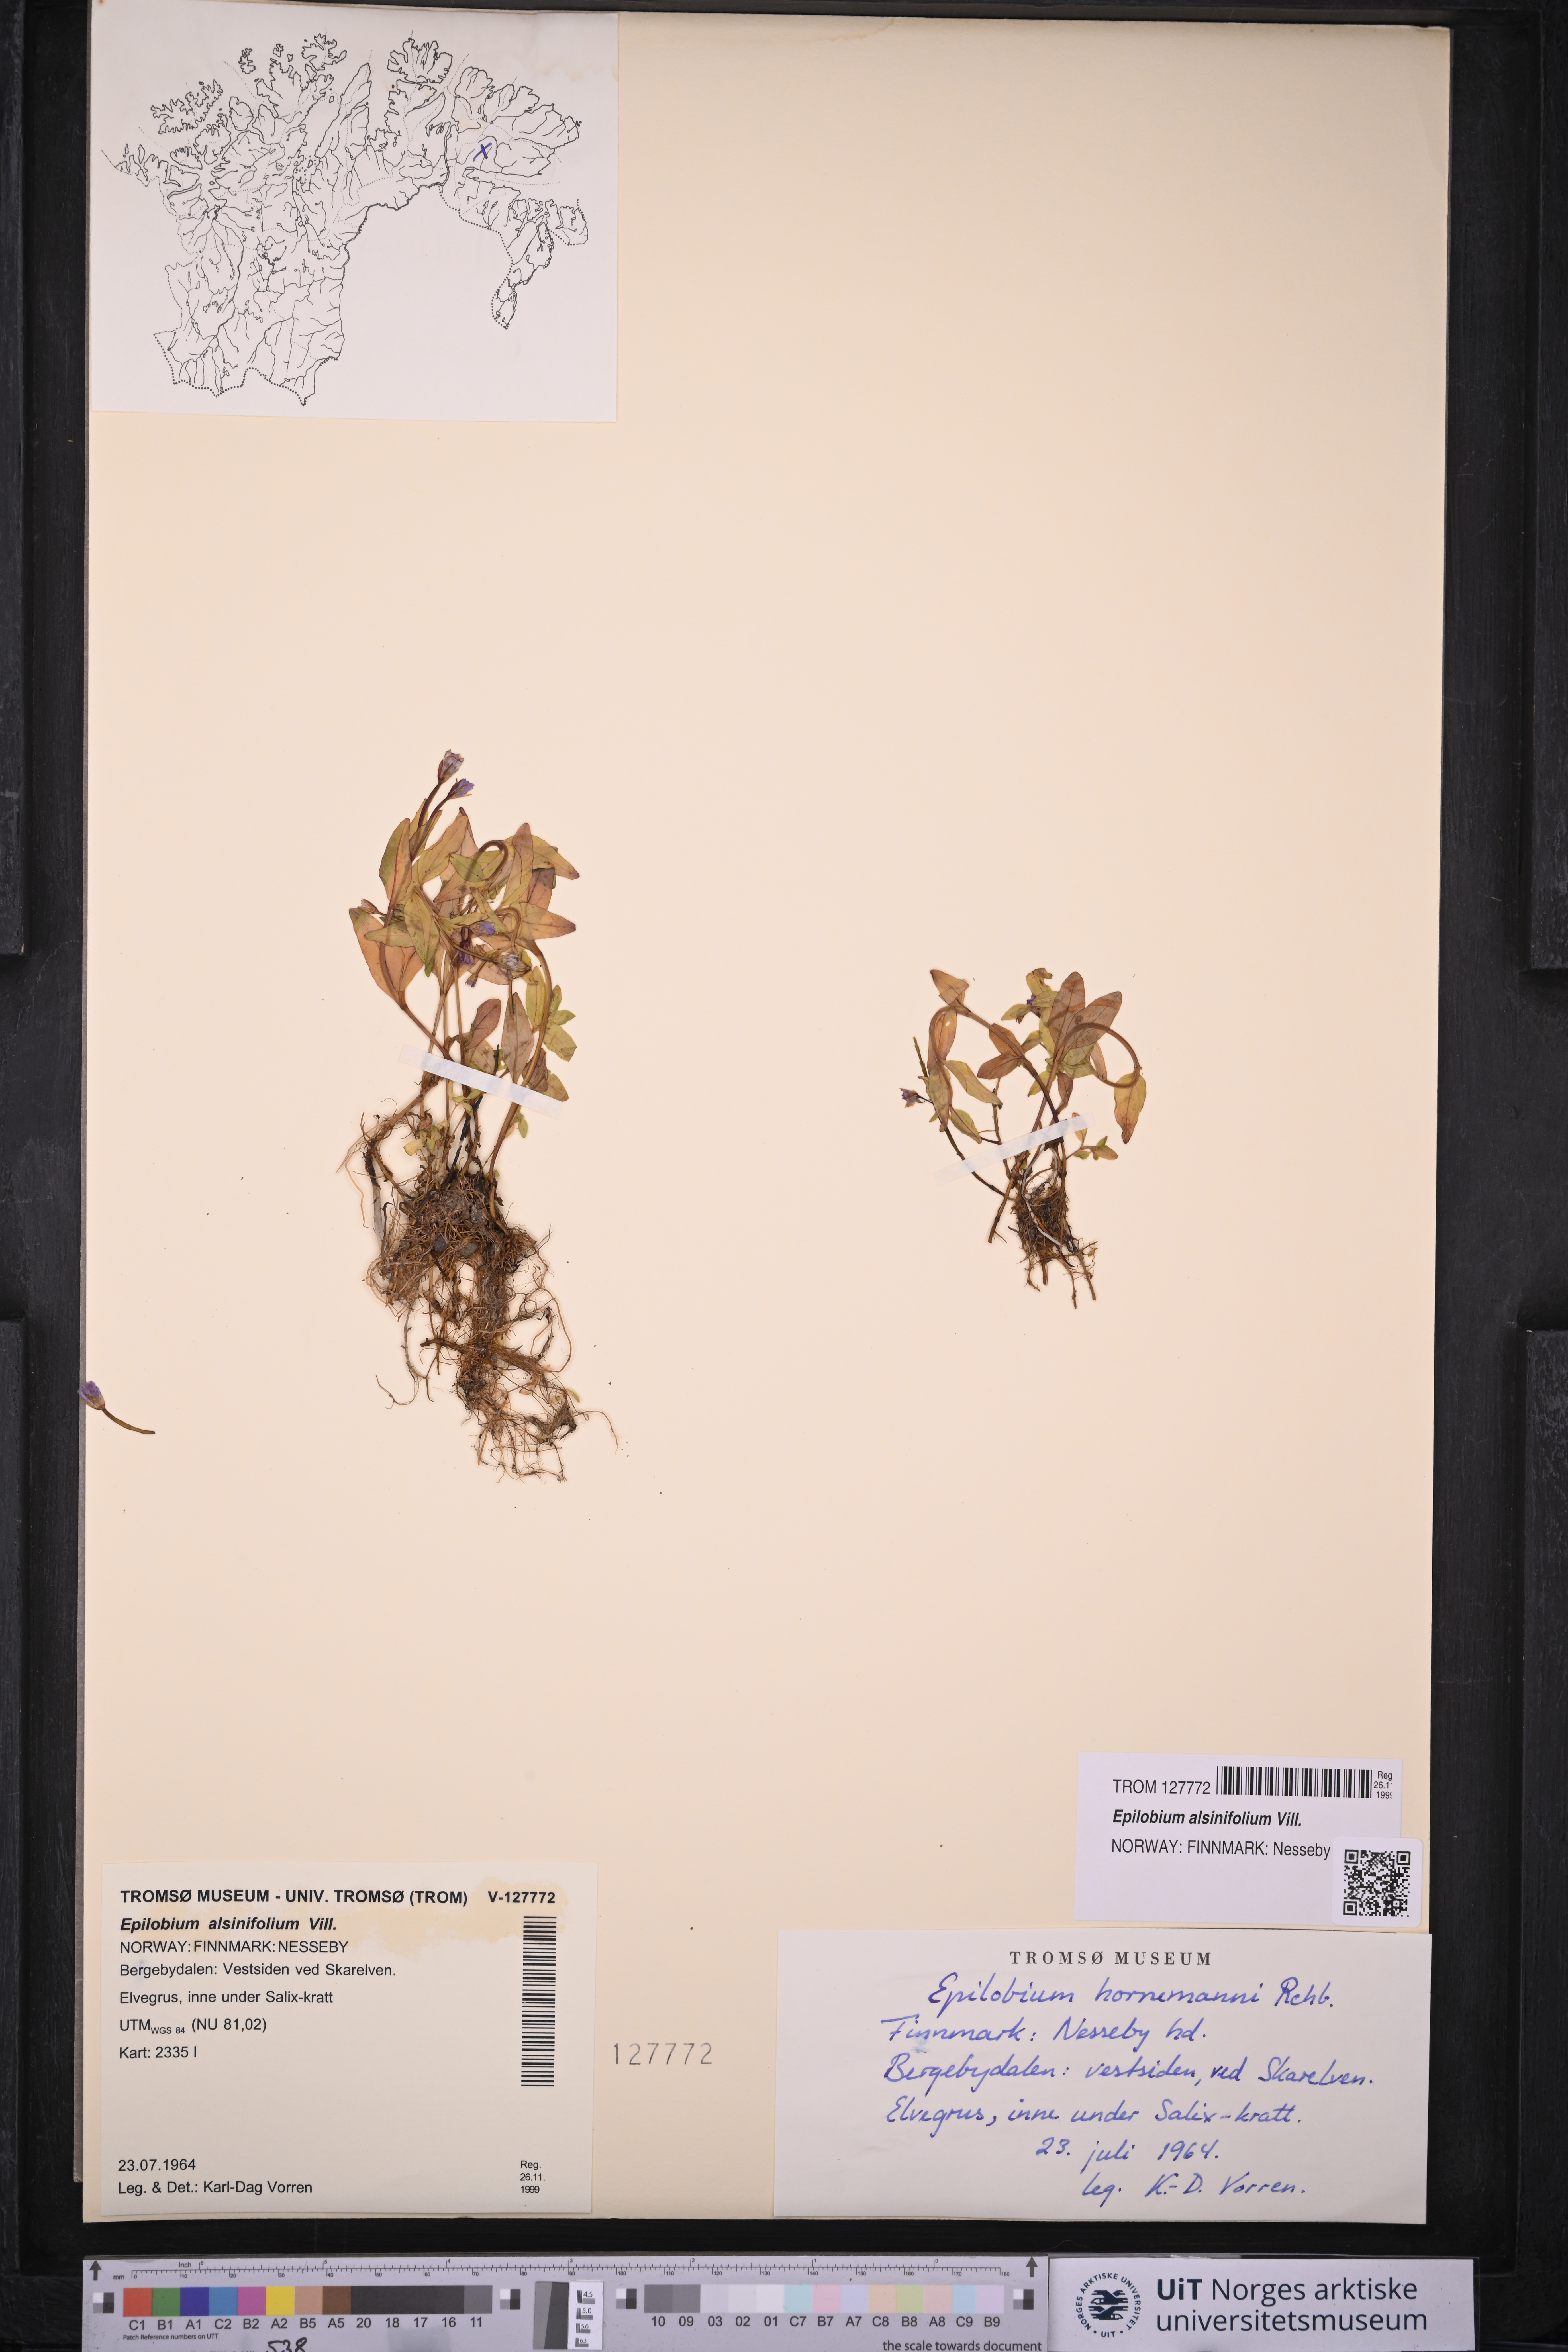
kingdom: Plantae
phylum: Tracheophyta
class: Magnoliopsida
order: Myrtales
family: Onagraceae
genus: Epilobium
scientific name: Epilobium alsinifolium
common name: Chickweed willowherb
